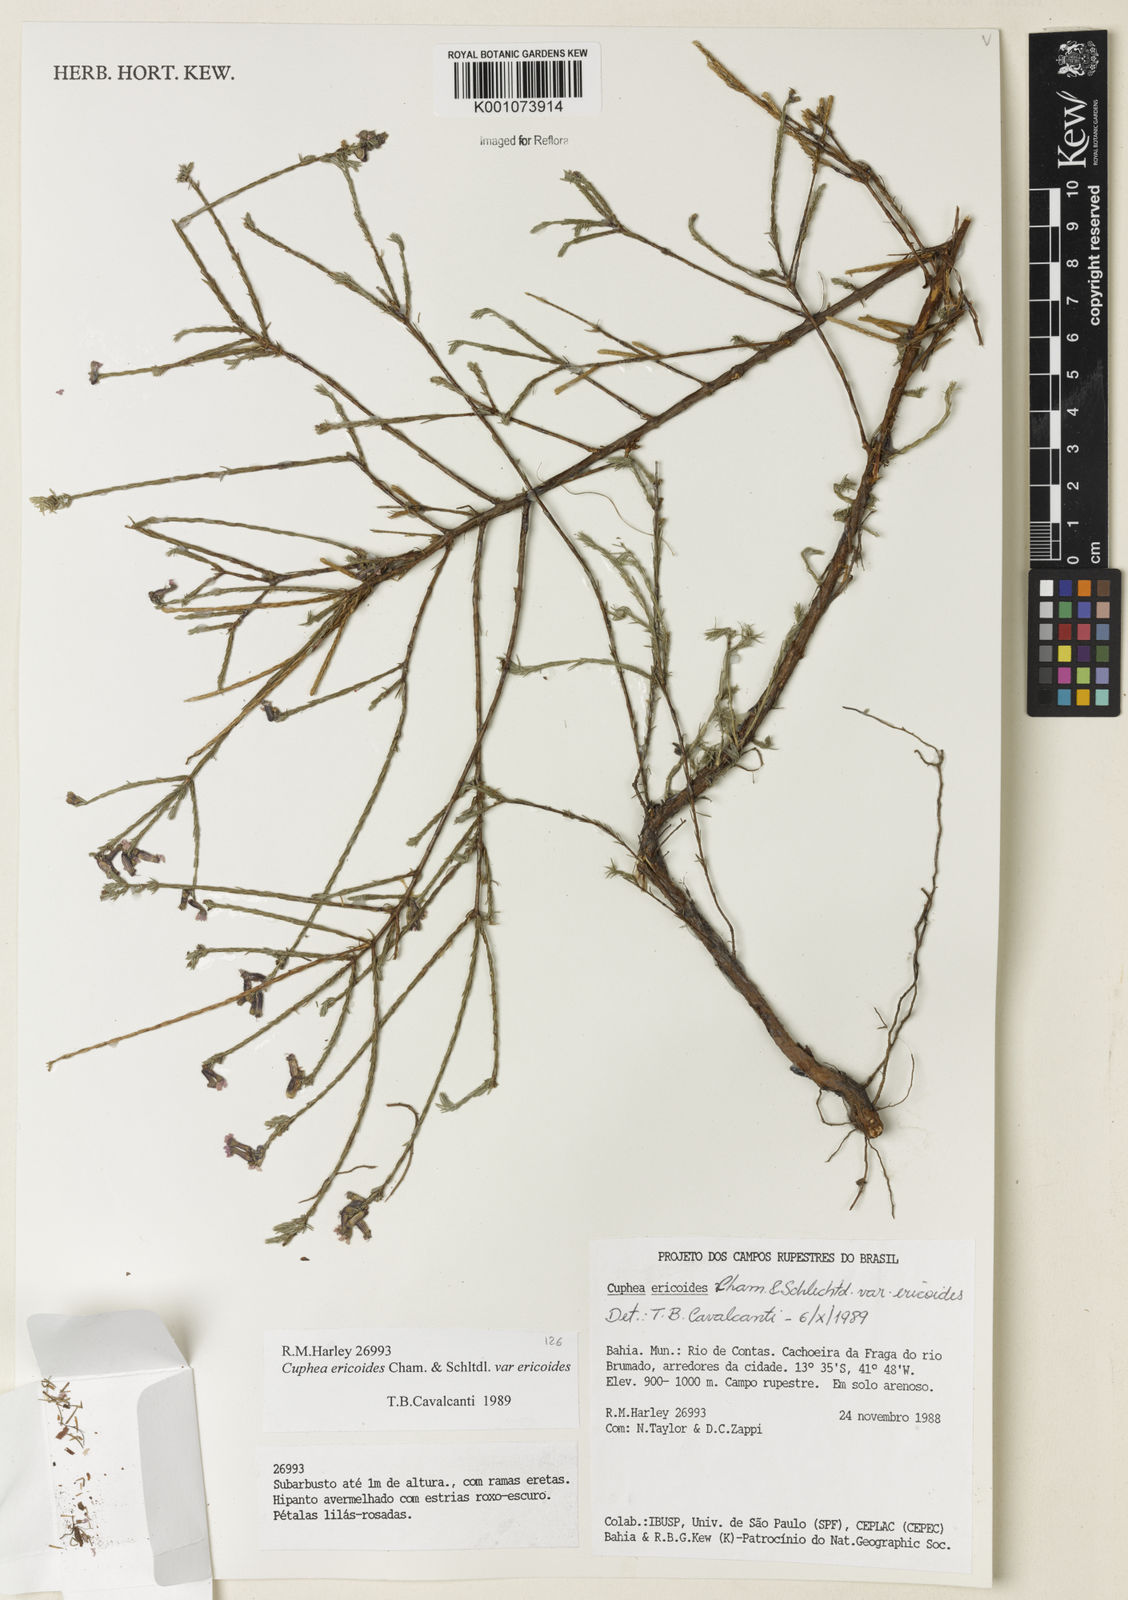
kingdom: Plantae
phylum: Tracheophyta
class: Magnoliopsida
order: Myrtales
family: Lythraceae
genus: Cuphea
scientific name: Cuphea ericoides
